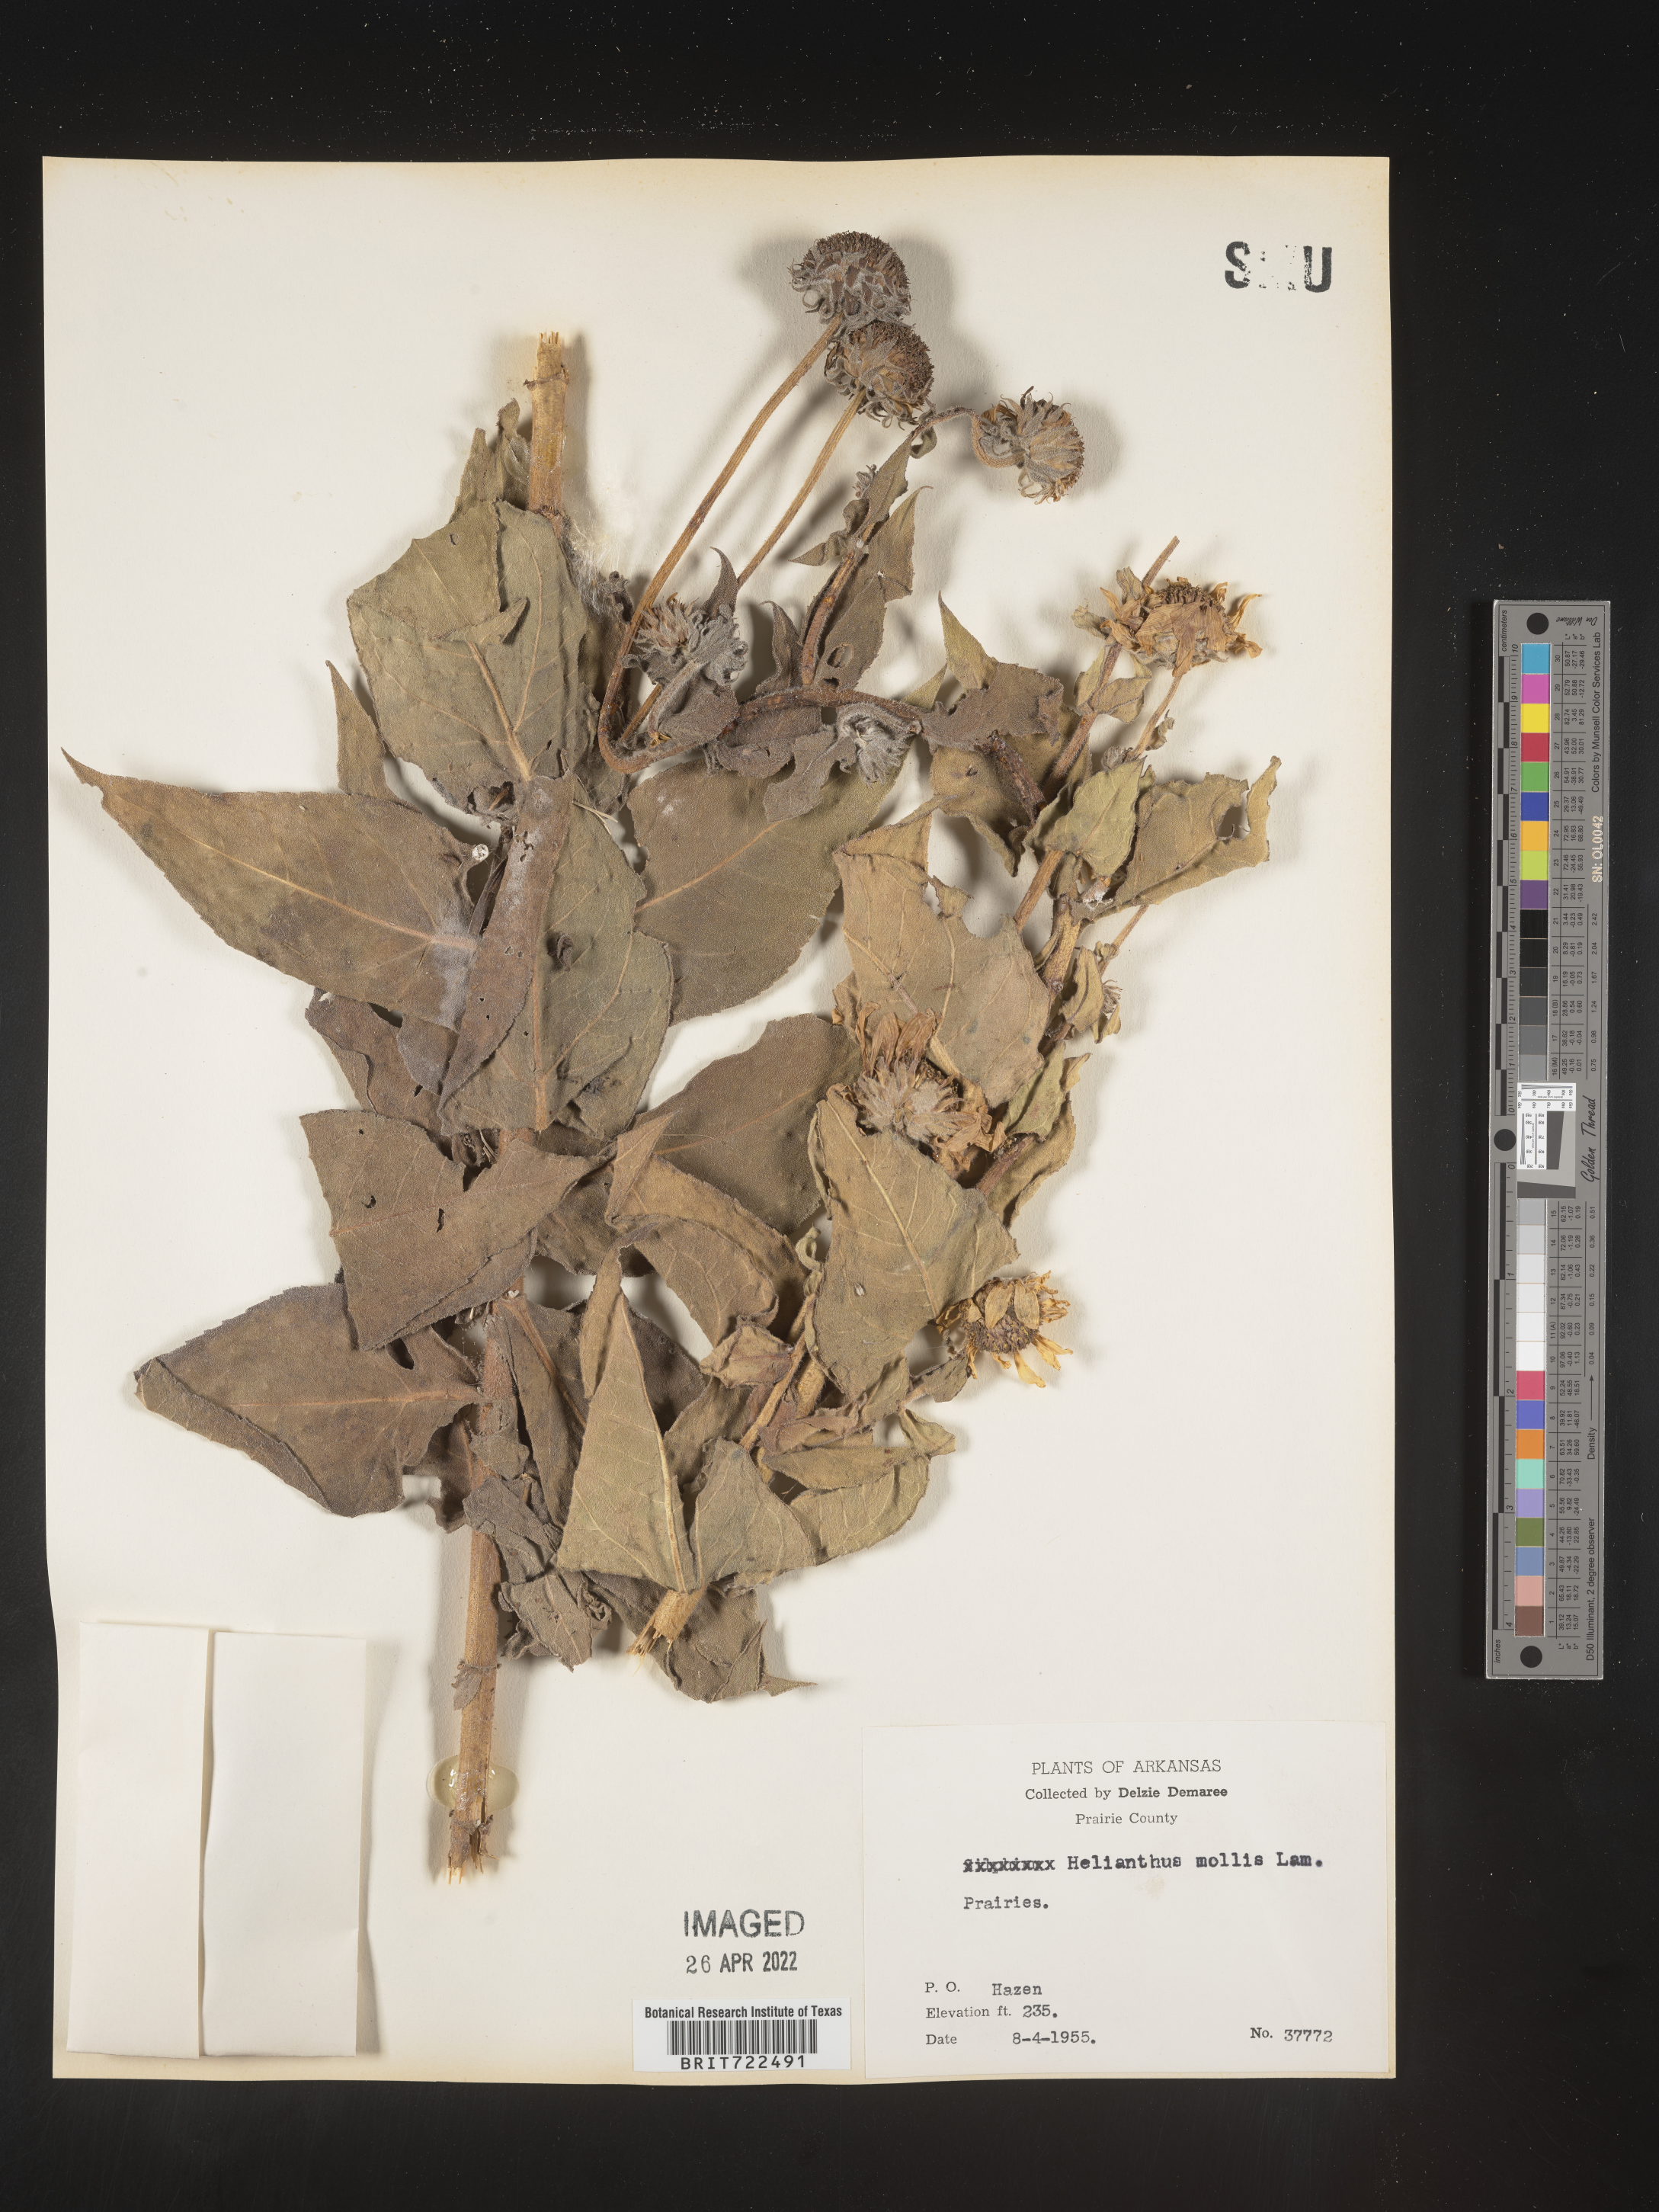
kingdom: Plantae
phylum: Tracheophyta
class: Magnoliopsida
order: Asterales
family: Asteraceae
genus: Helianthus
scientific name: Helianthus mollis
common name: Ashy sunflower
